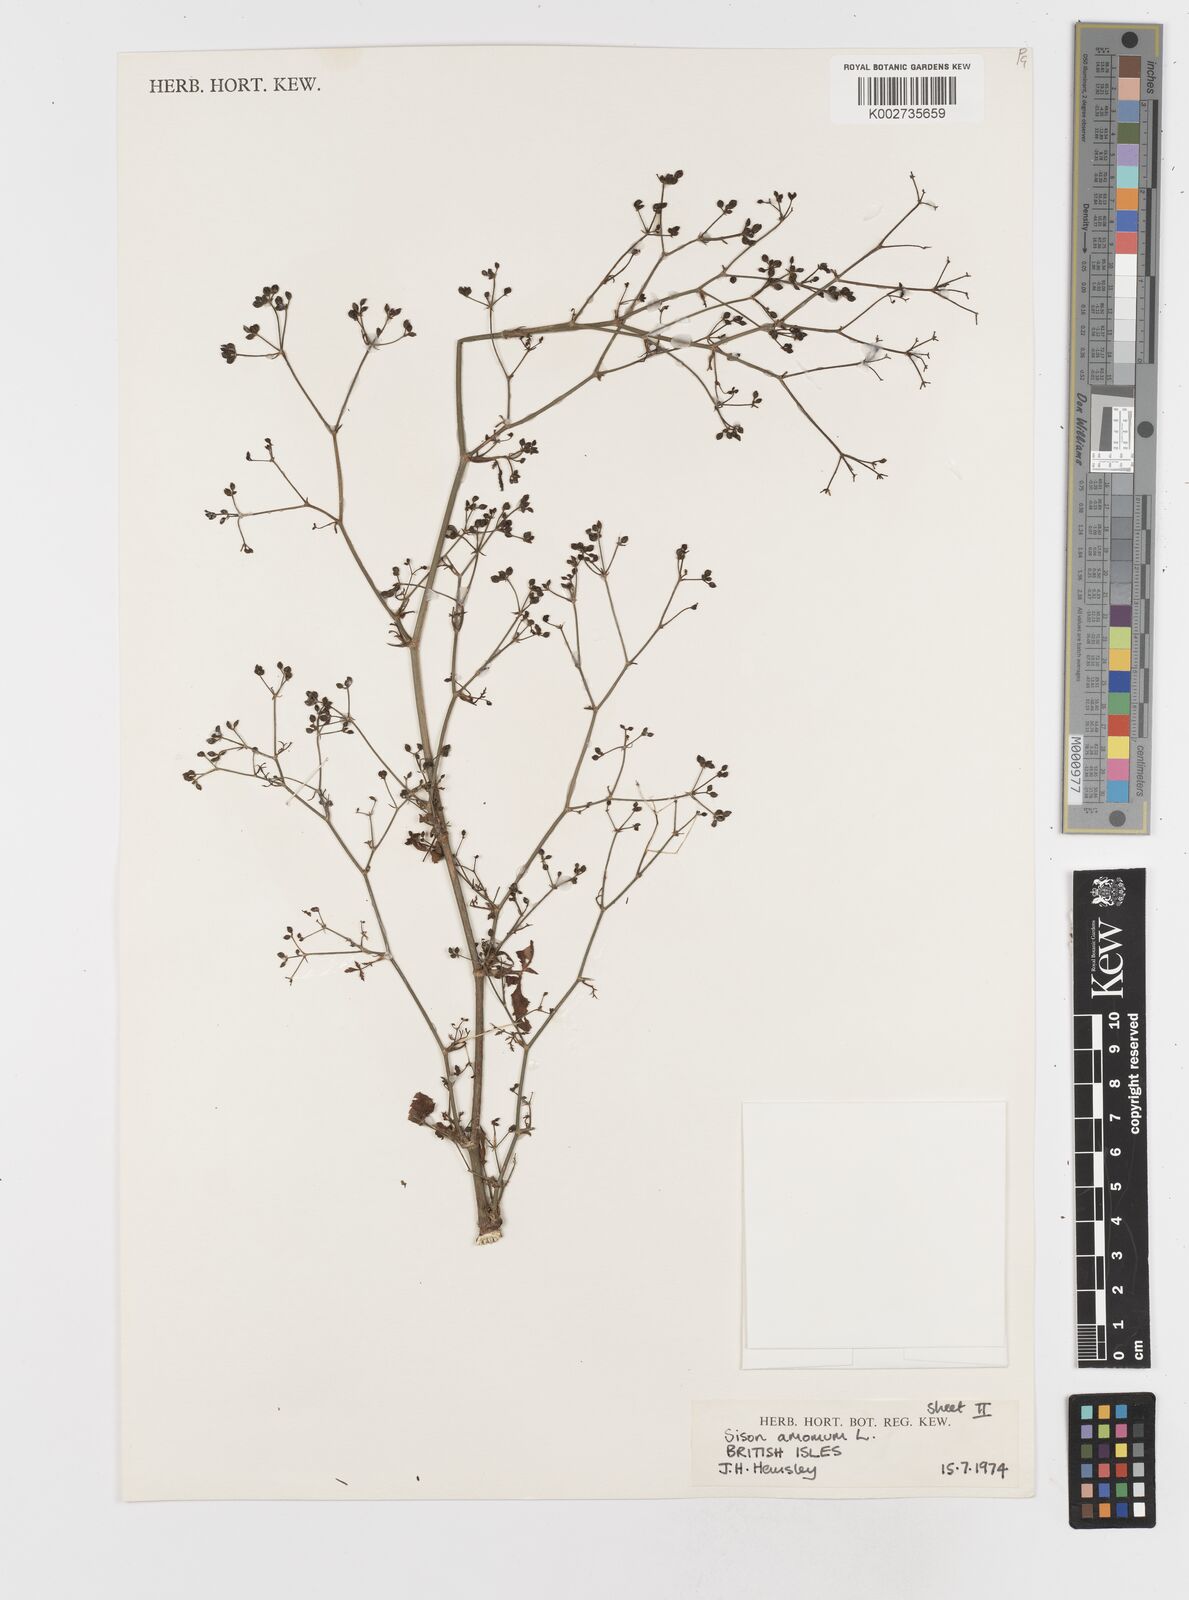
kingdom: Plantae
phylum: Tracheophyta
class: Magnoliopsida
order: Apiales
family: Apiaceae
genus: Sison
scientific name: Sison amomum
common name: Stone-parsley
